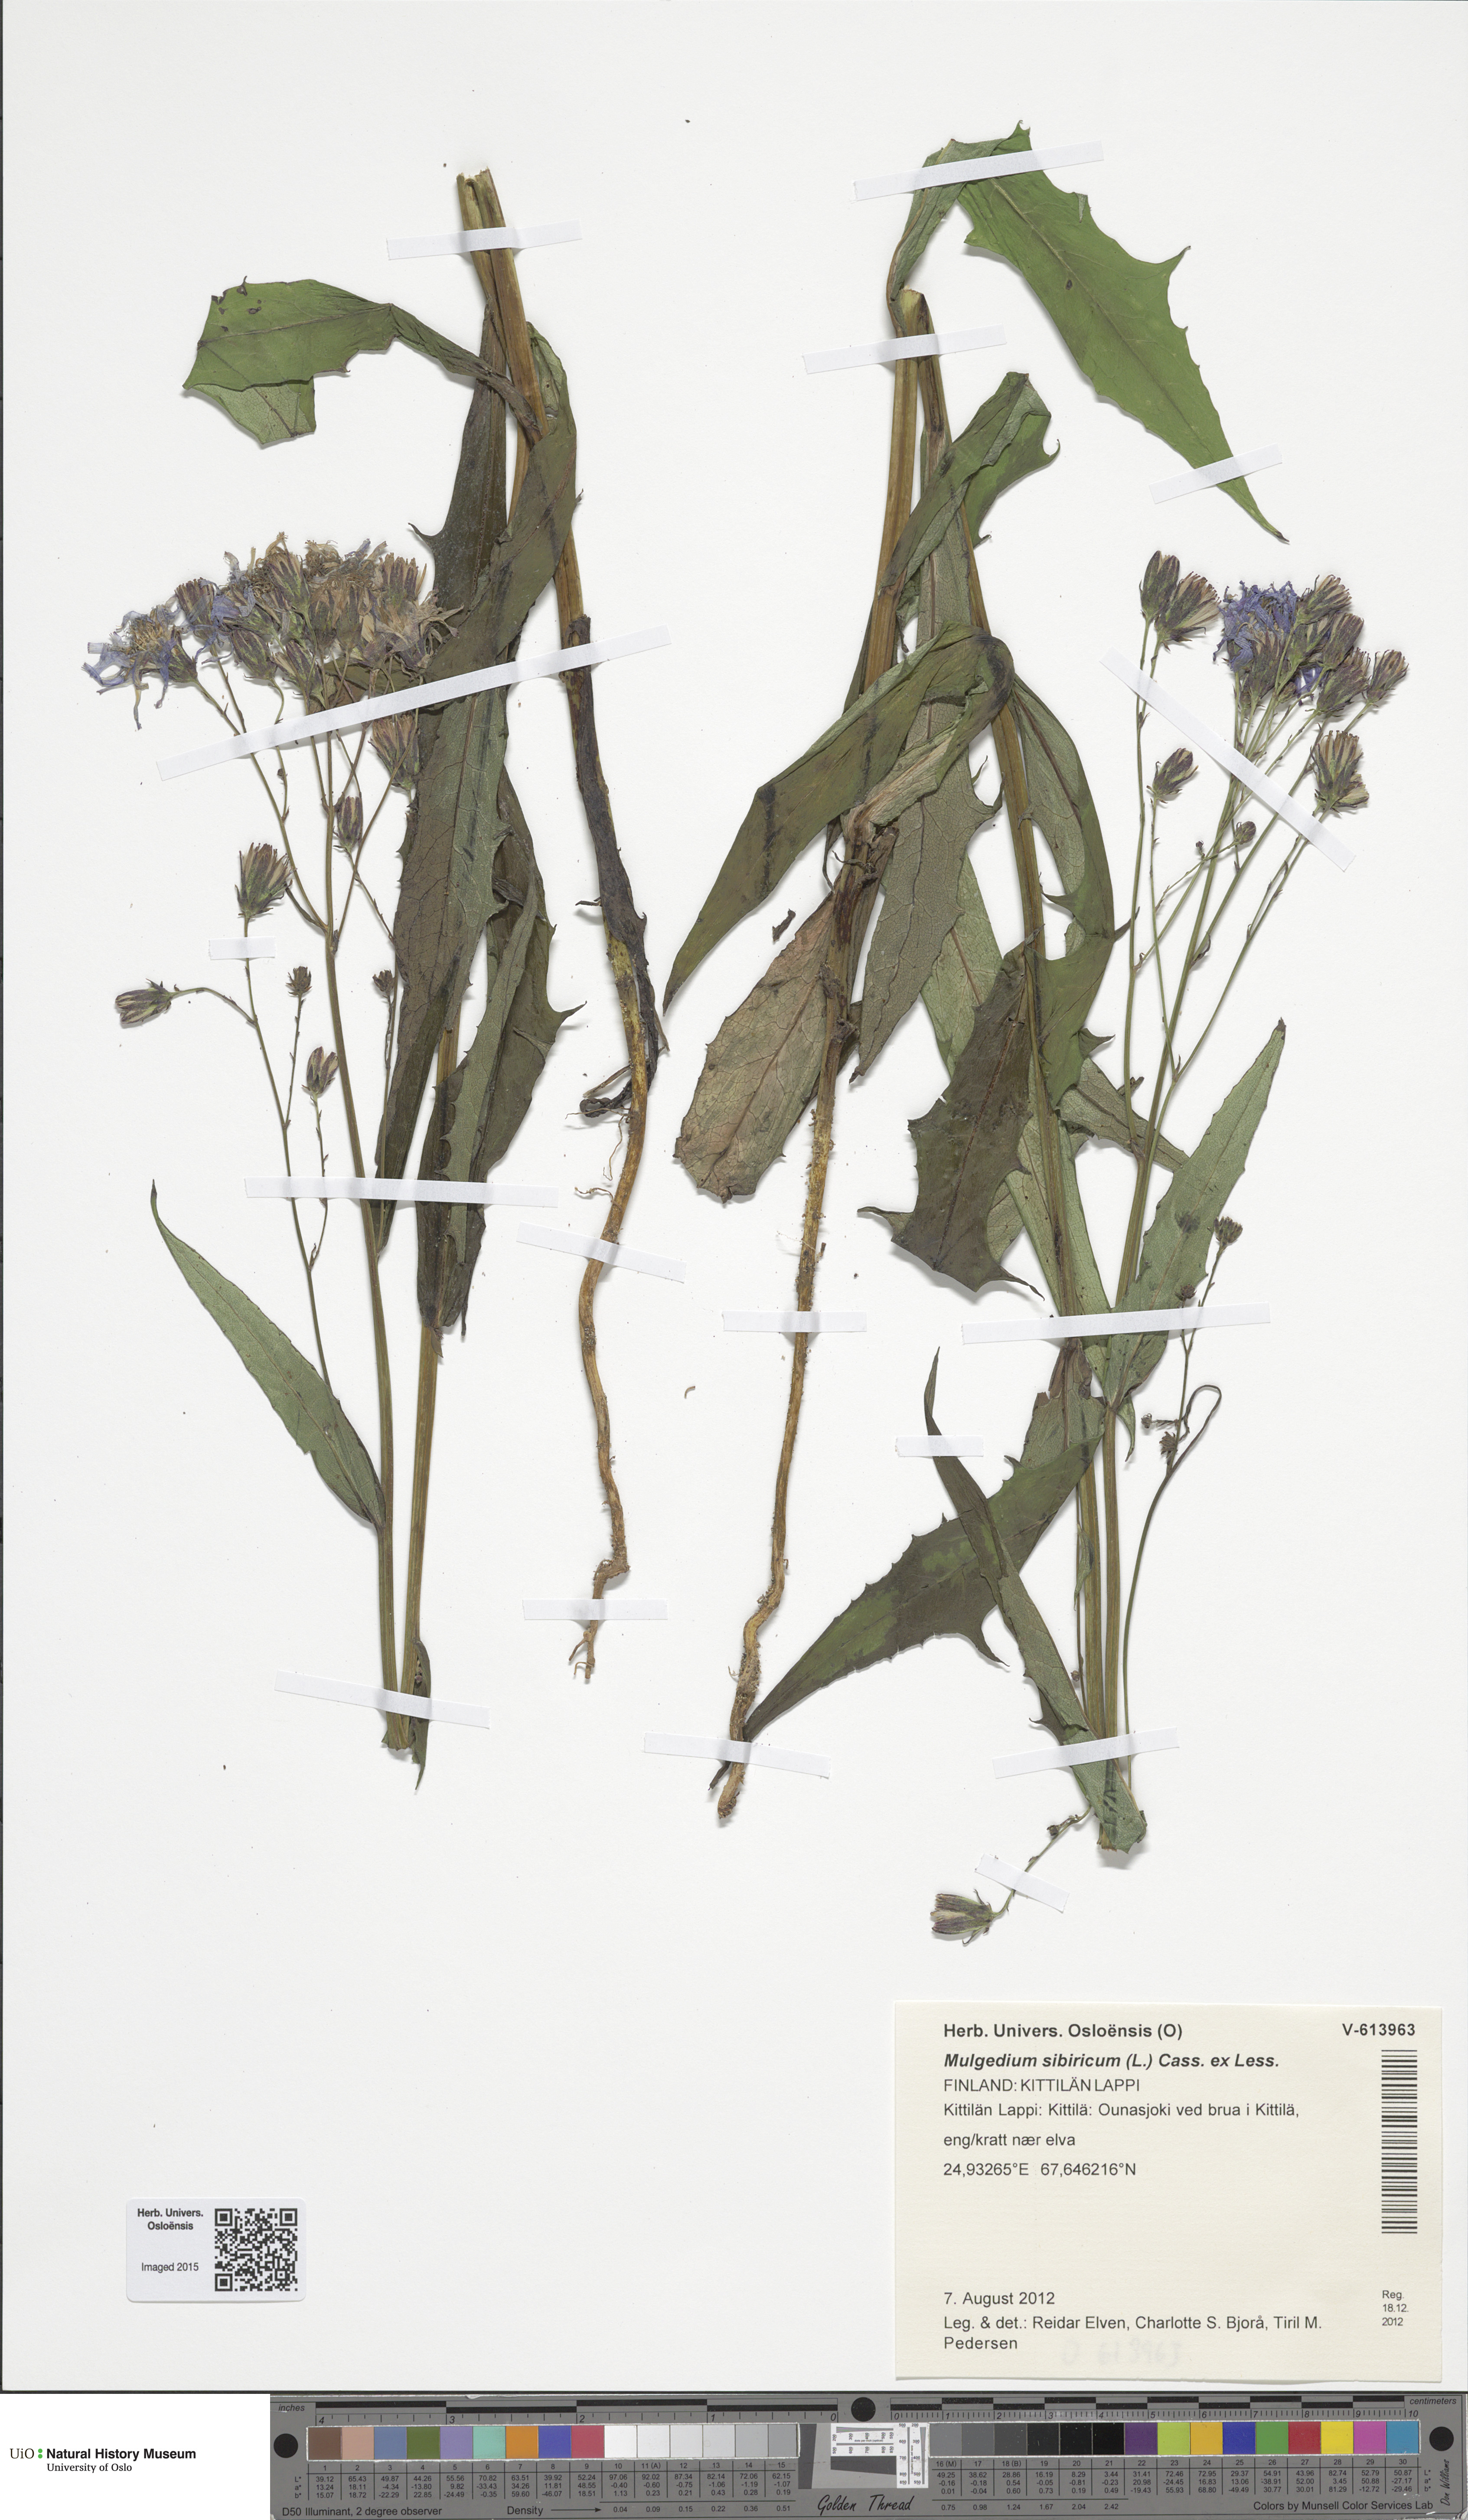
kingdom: Plantae
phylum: Tracheophyta
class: Magnoliopsida
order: Asterales
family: Asteraceae
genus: Lactuca
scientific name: Lactuca sibirica
